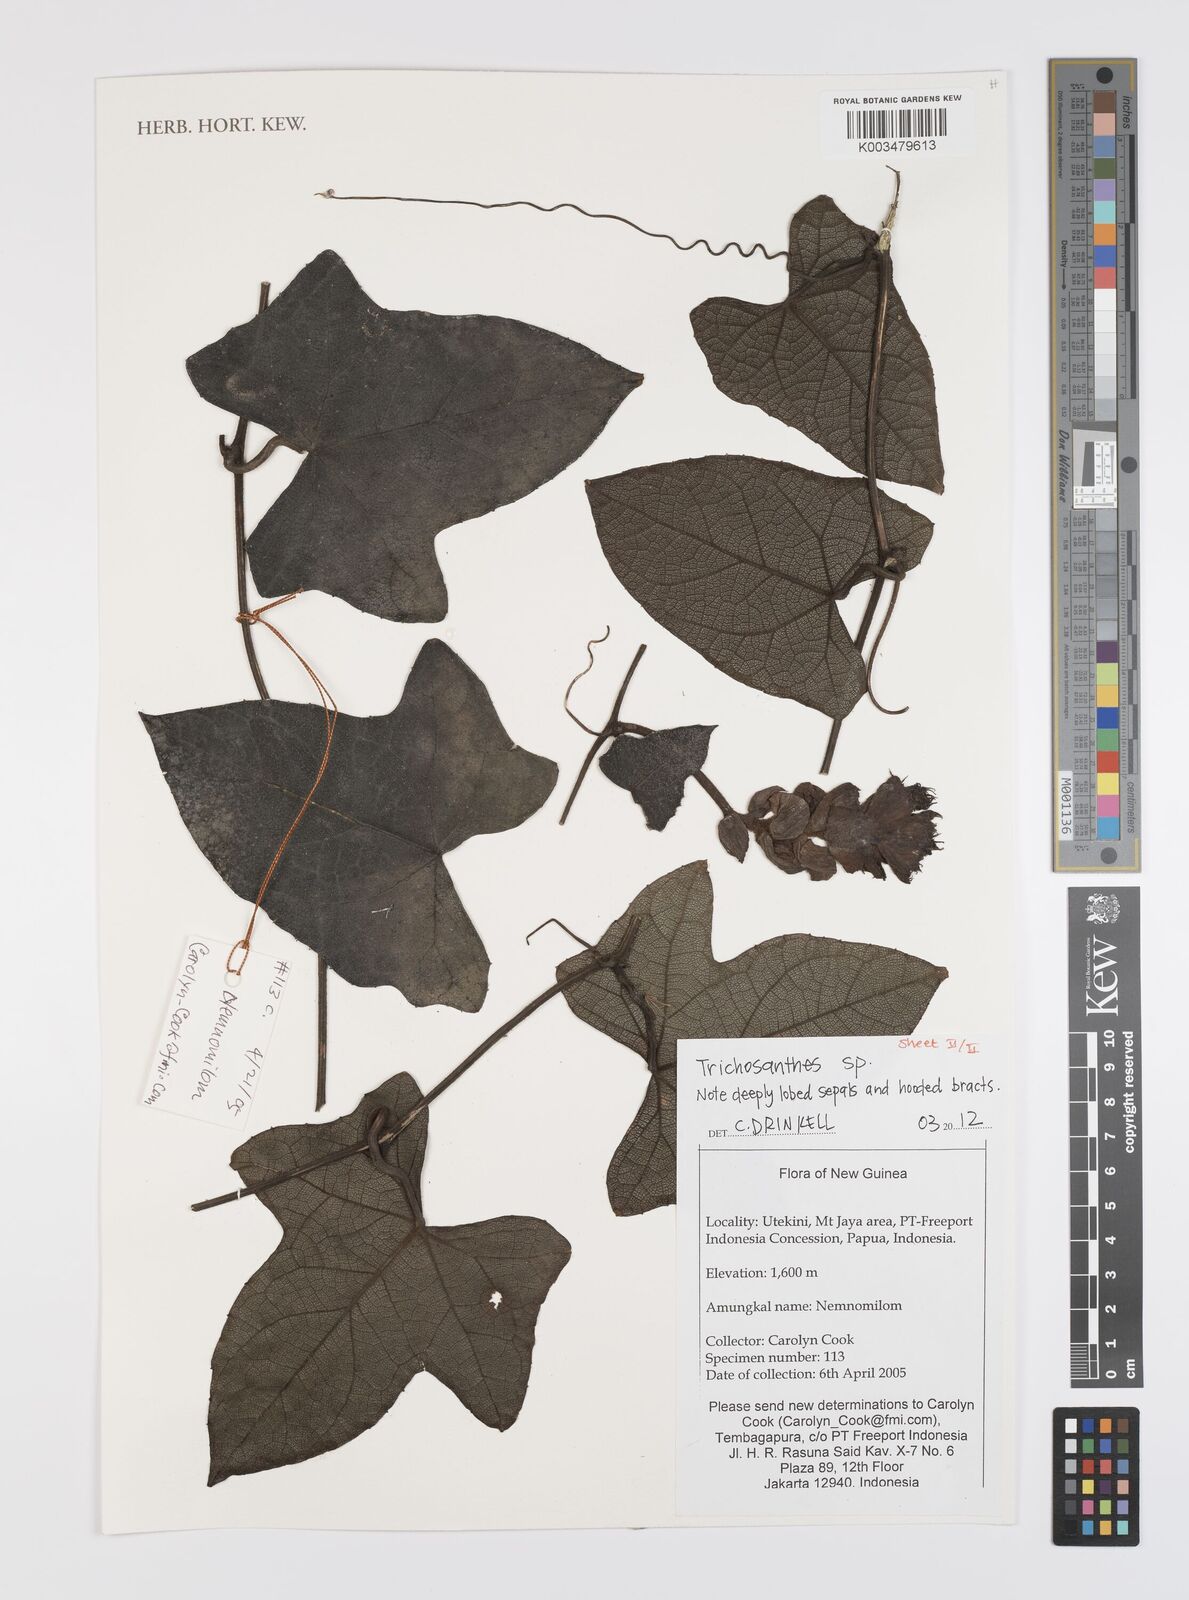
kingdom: Plantae
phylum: Tracheophyta
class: Magnoliopsida
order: Cucurbitales
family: Cucurbitaceae
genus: Trichosanthes
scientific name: Trichosanthes
